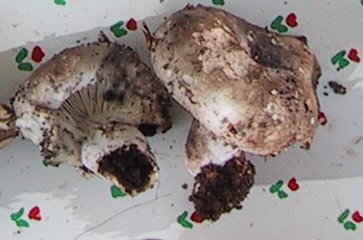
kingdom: Fungi
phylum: Basidiomycota
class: Agaricomycetes
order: Russulales
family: Russulaceae
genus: Russula
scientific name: Russula densifolia
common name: tætbladet skørhat
